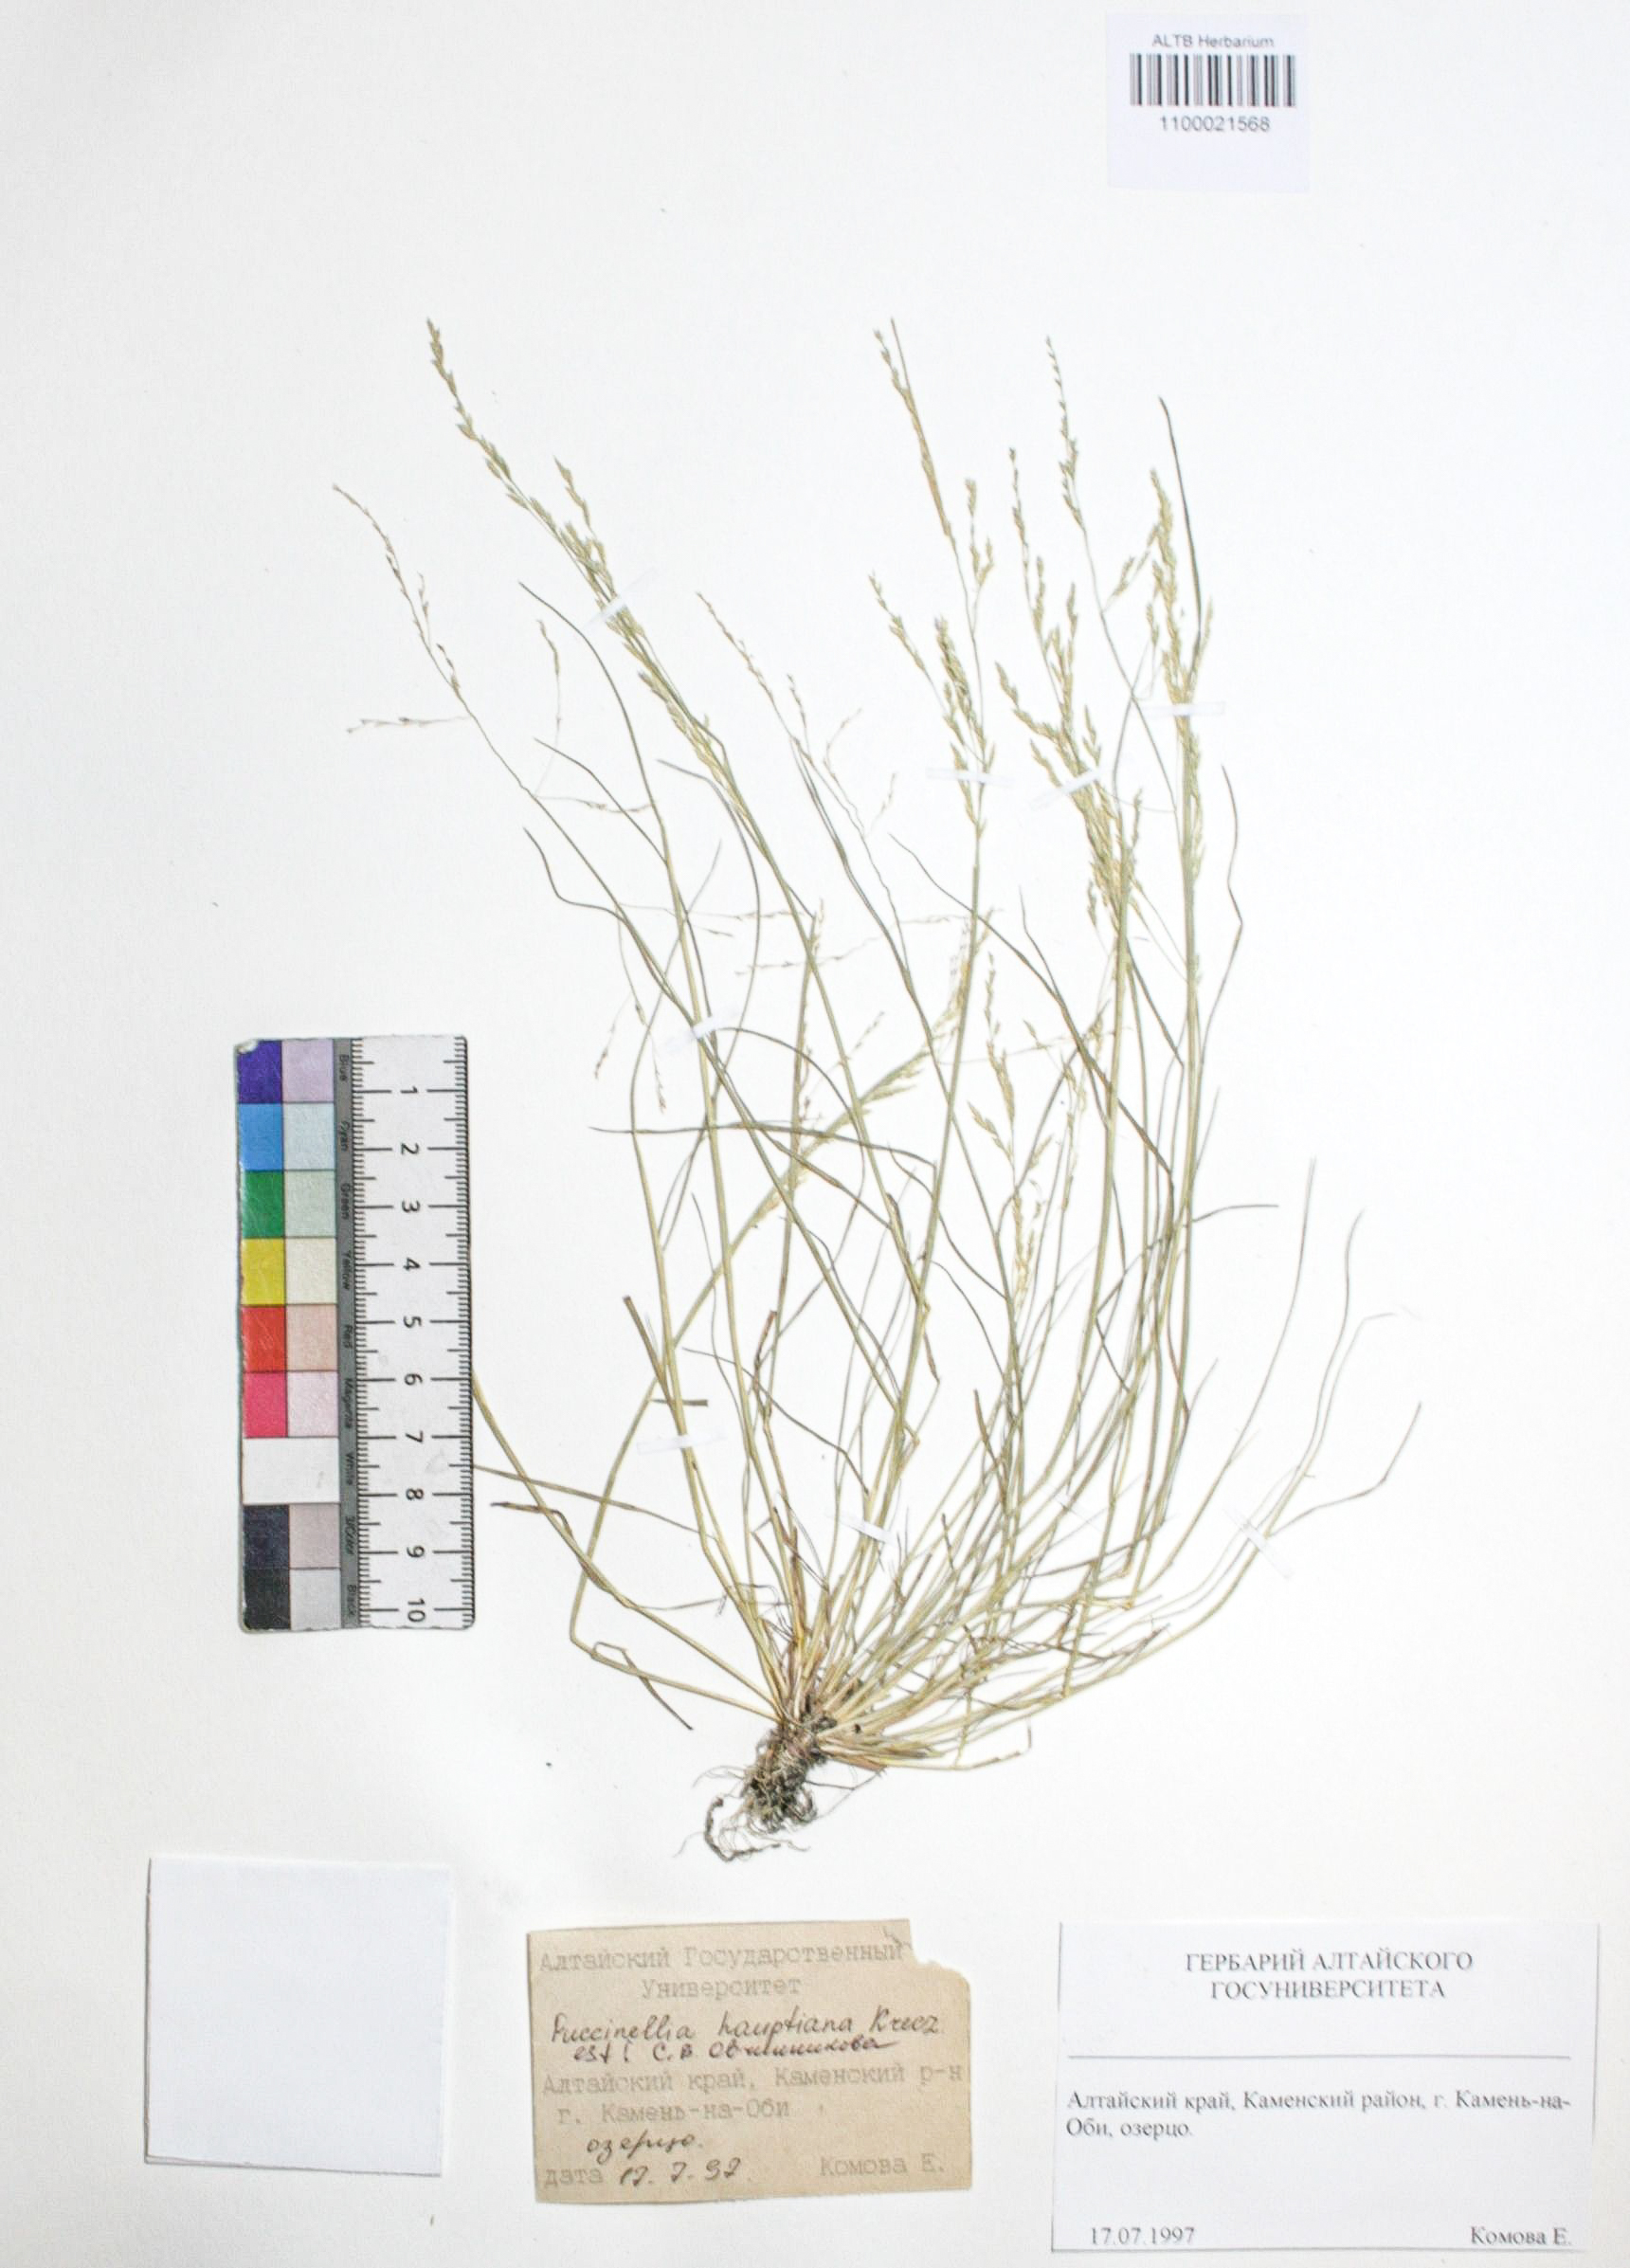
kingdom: Plantae
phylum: Tracheophyta
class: Liliopsida
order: Poales
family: Poaceae
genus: Puccinellia
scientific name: Puccinellia hauptiana
